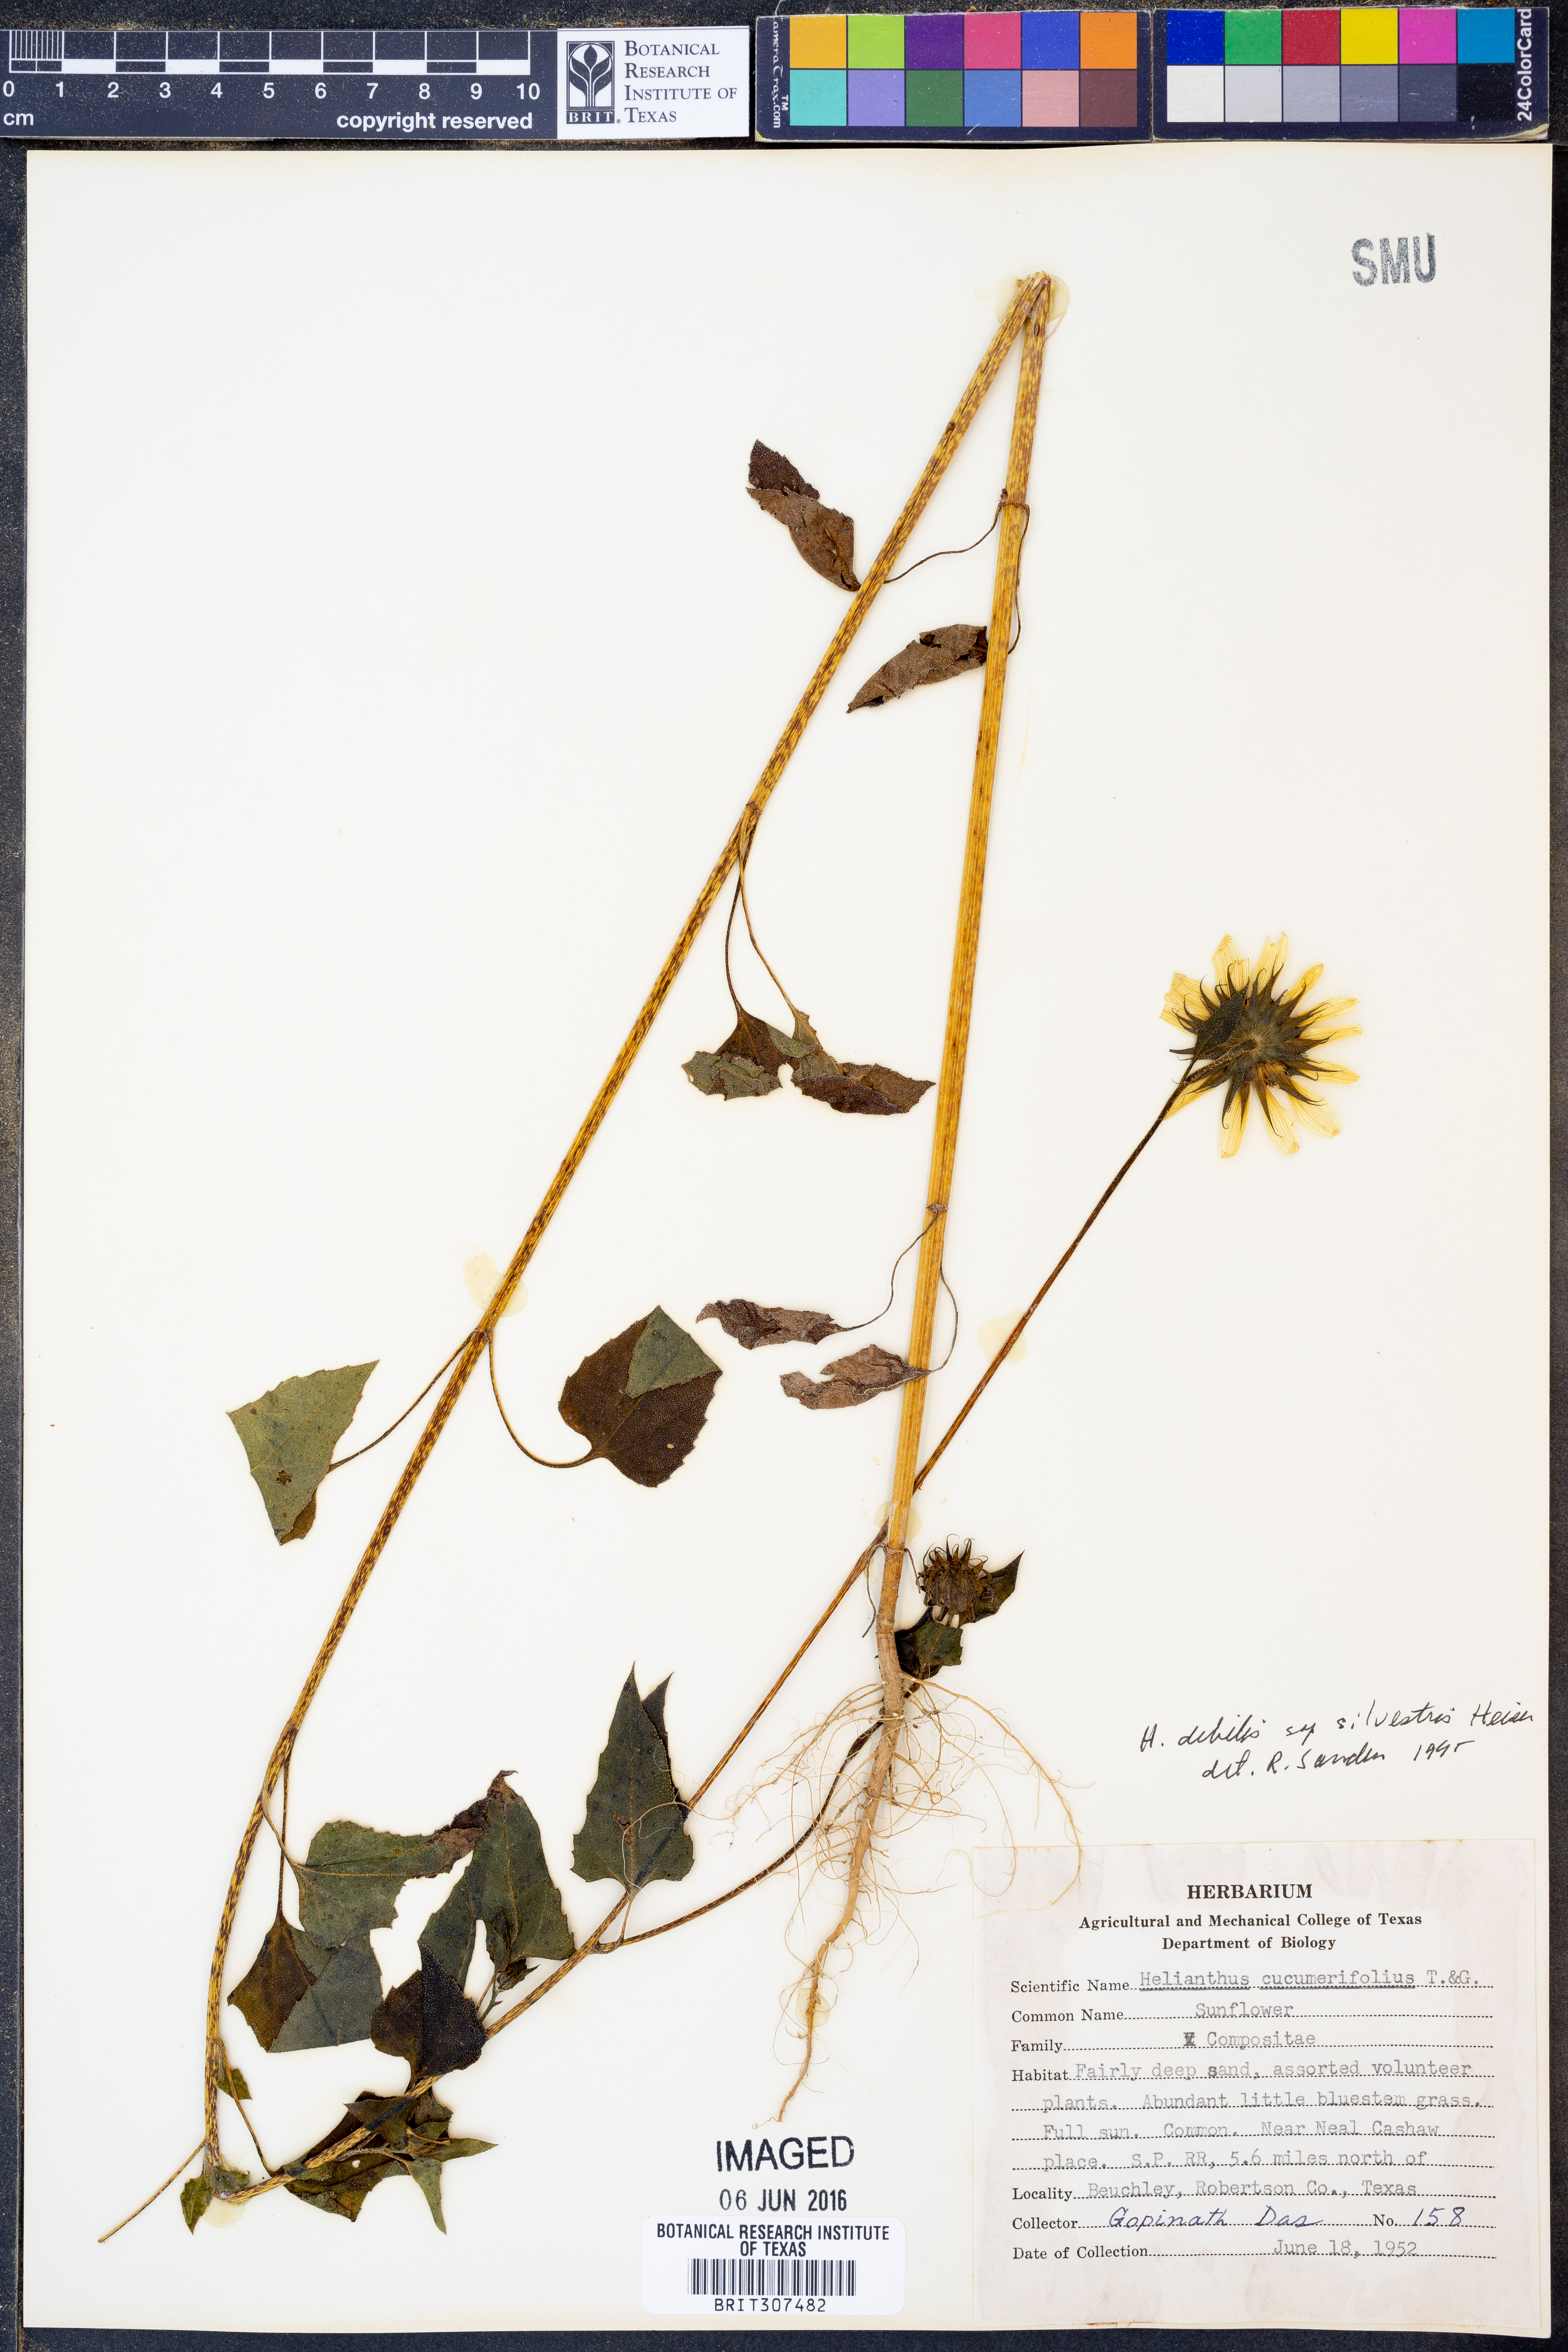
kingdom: Plantae
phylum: Tracheophyta
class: Magnoliopsida
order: Asterales
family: Asteraceae
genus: Helianthus
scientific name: Helianthus debilis
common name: Weak sunflower
